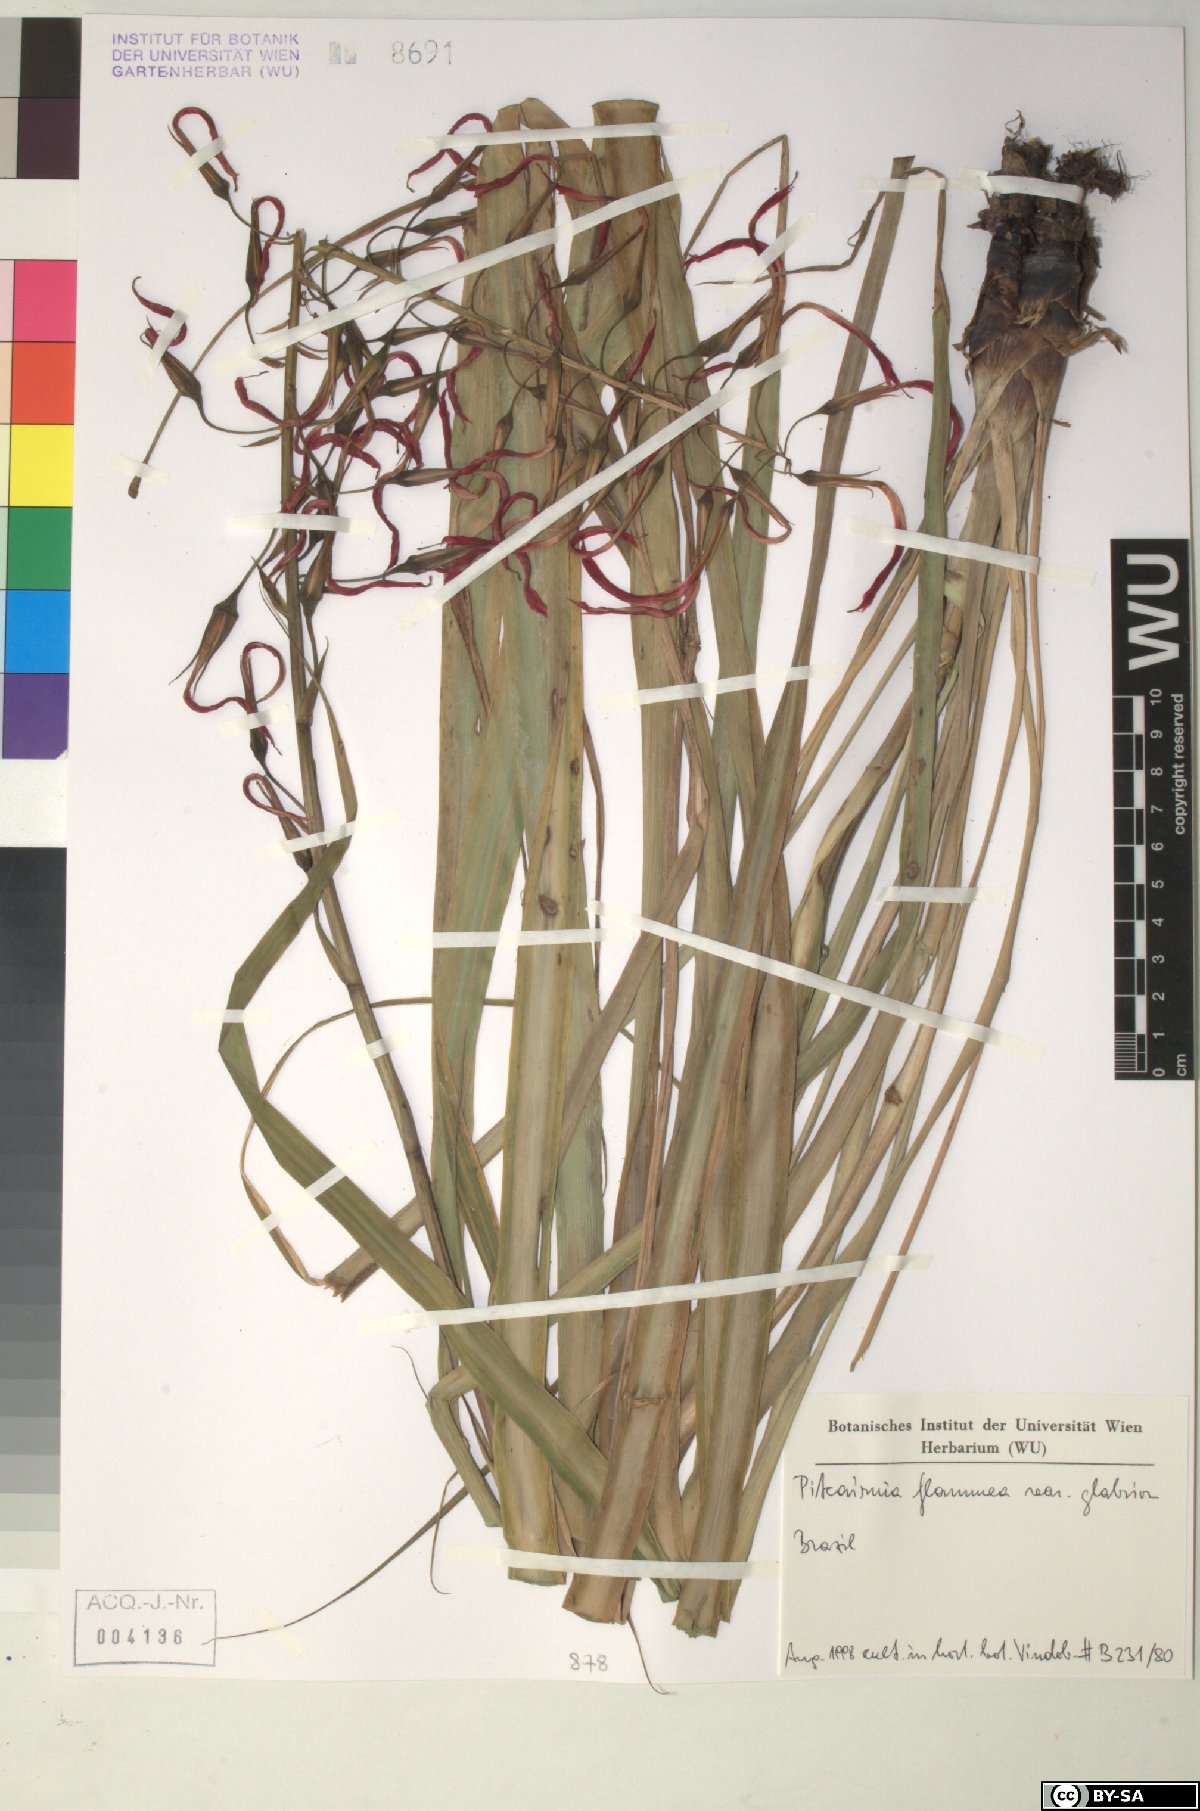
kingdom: Plantae
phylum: Tracheophyta
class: Liliopsida
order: Poales
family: Bromeliaceae
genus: Pitcairnia
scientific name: Pitcairnia flammea
